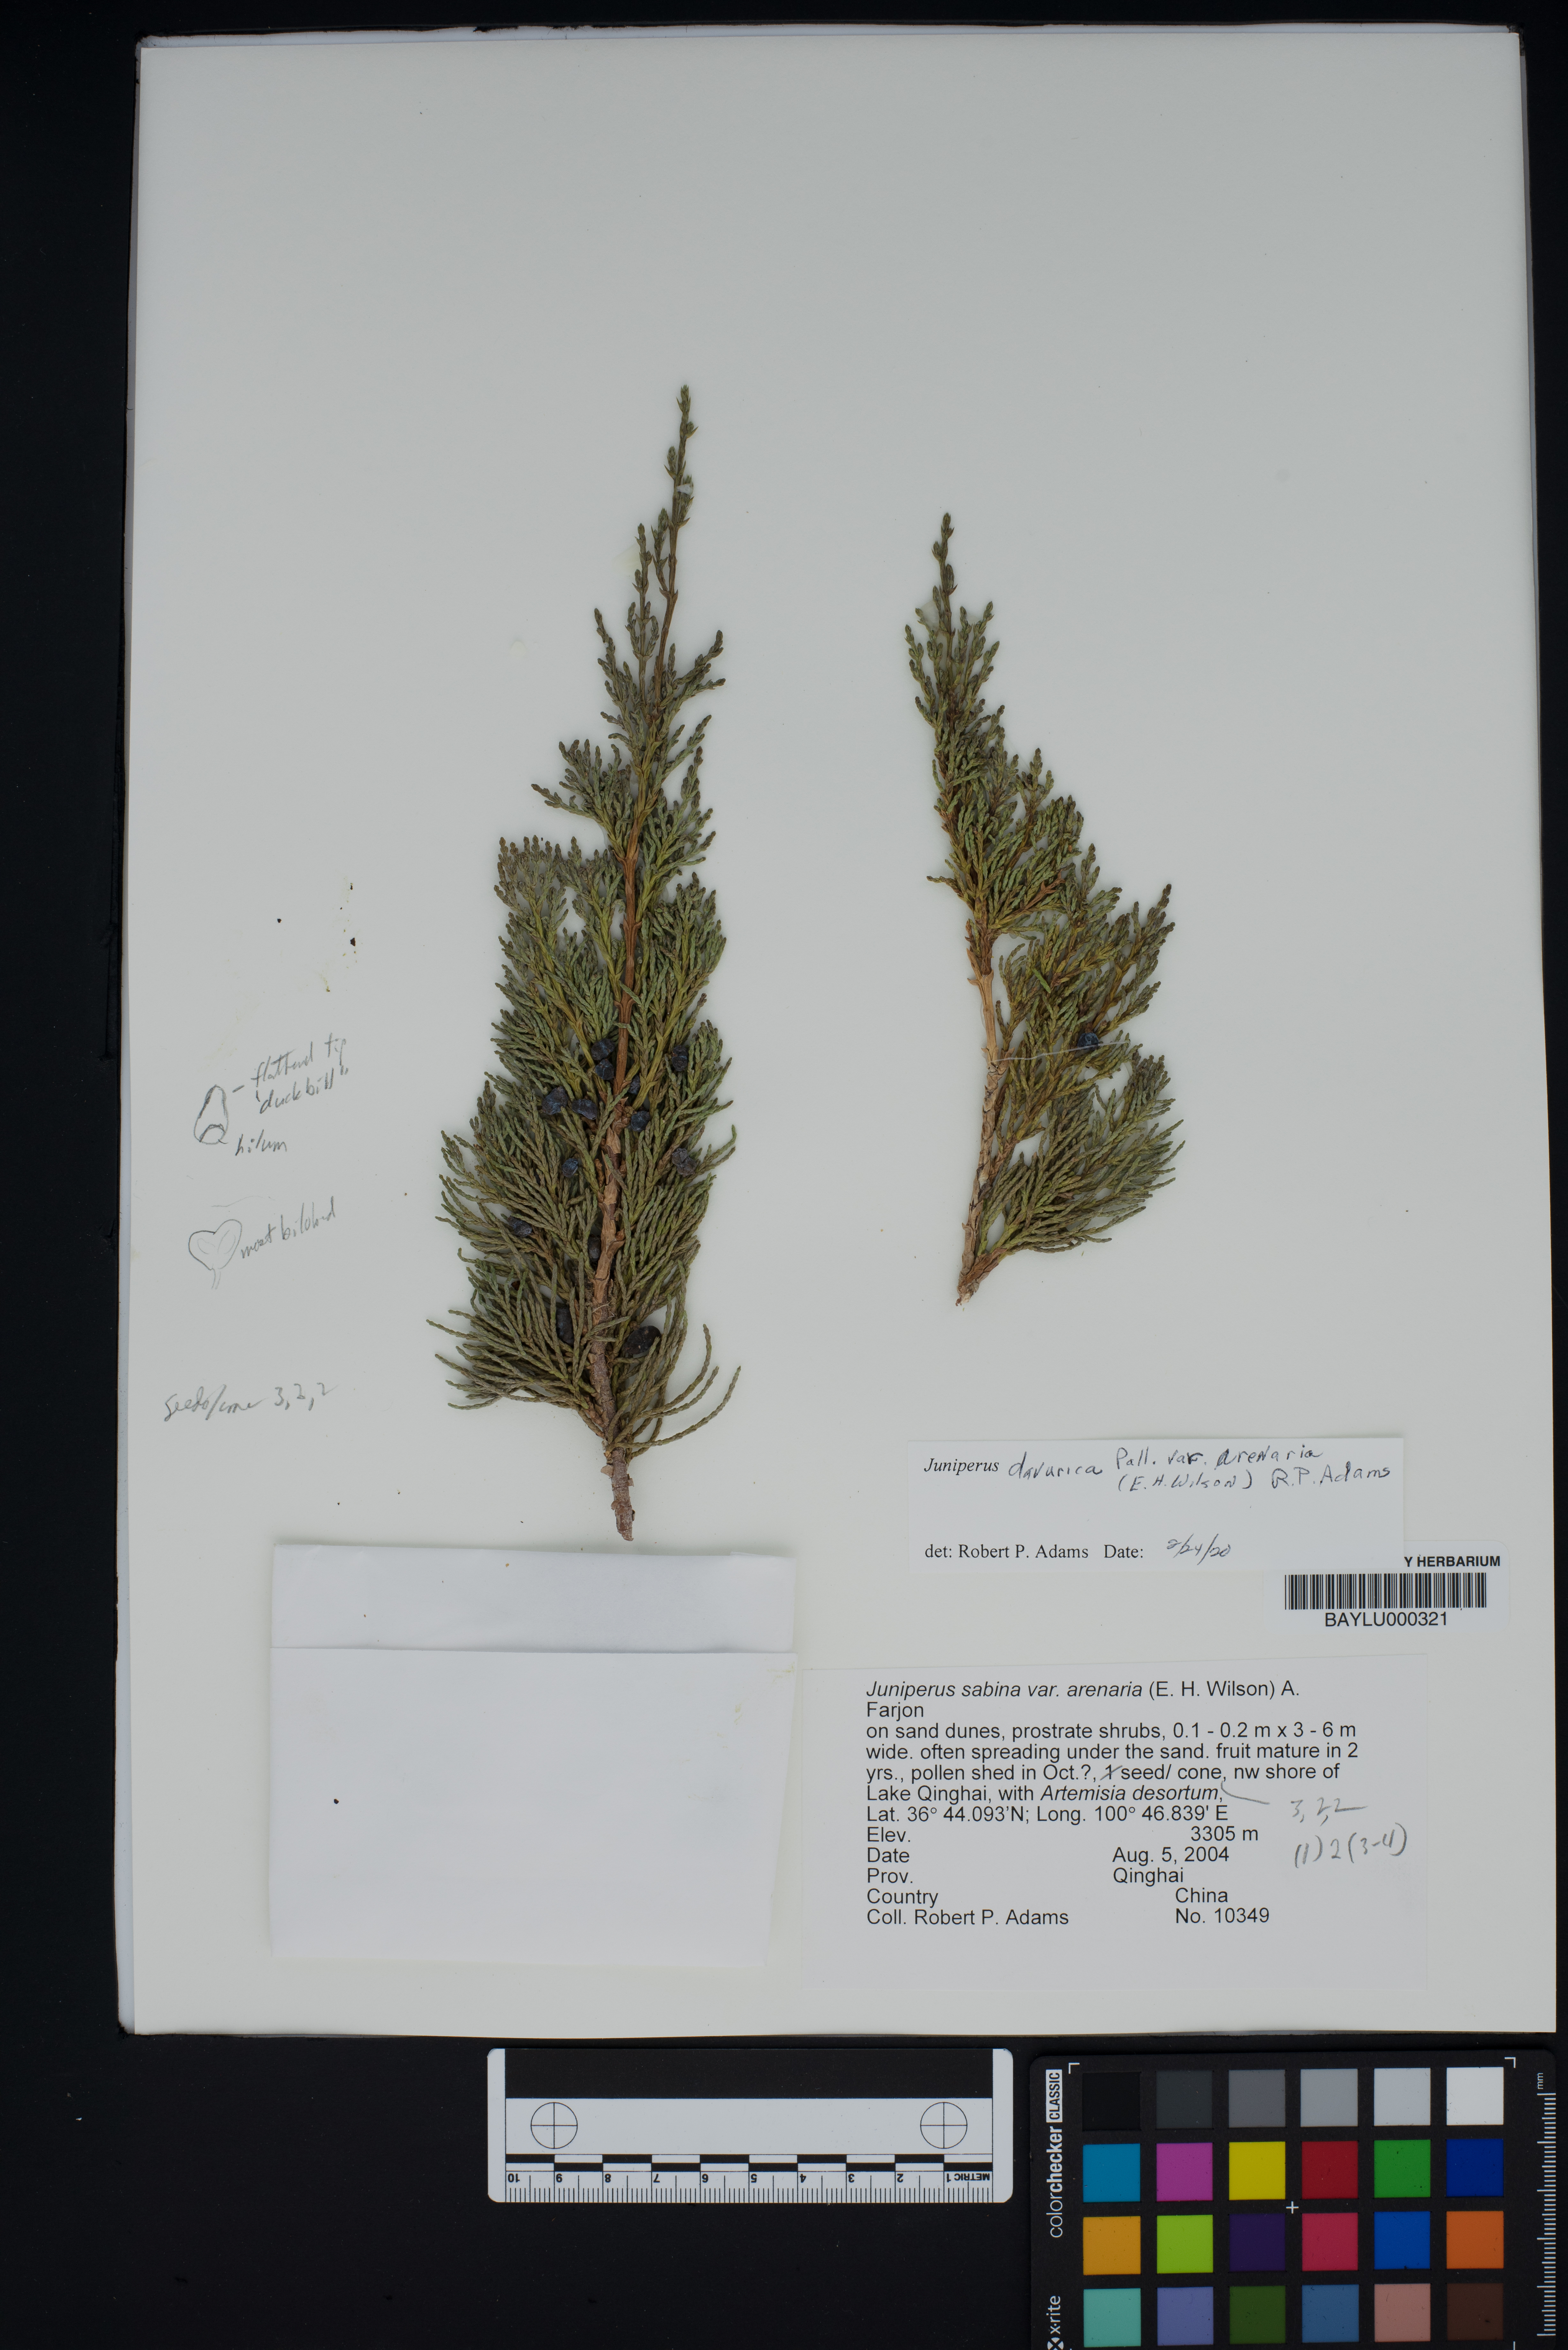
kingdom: Plantae
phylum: Tracheophyta
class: Pinopsida
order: Pinales
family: Cupressaceae
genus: Juniperus
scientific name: Juniperus sabina
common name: Savin
